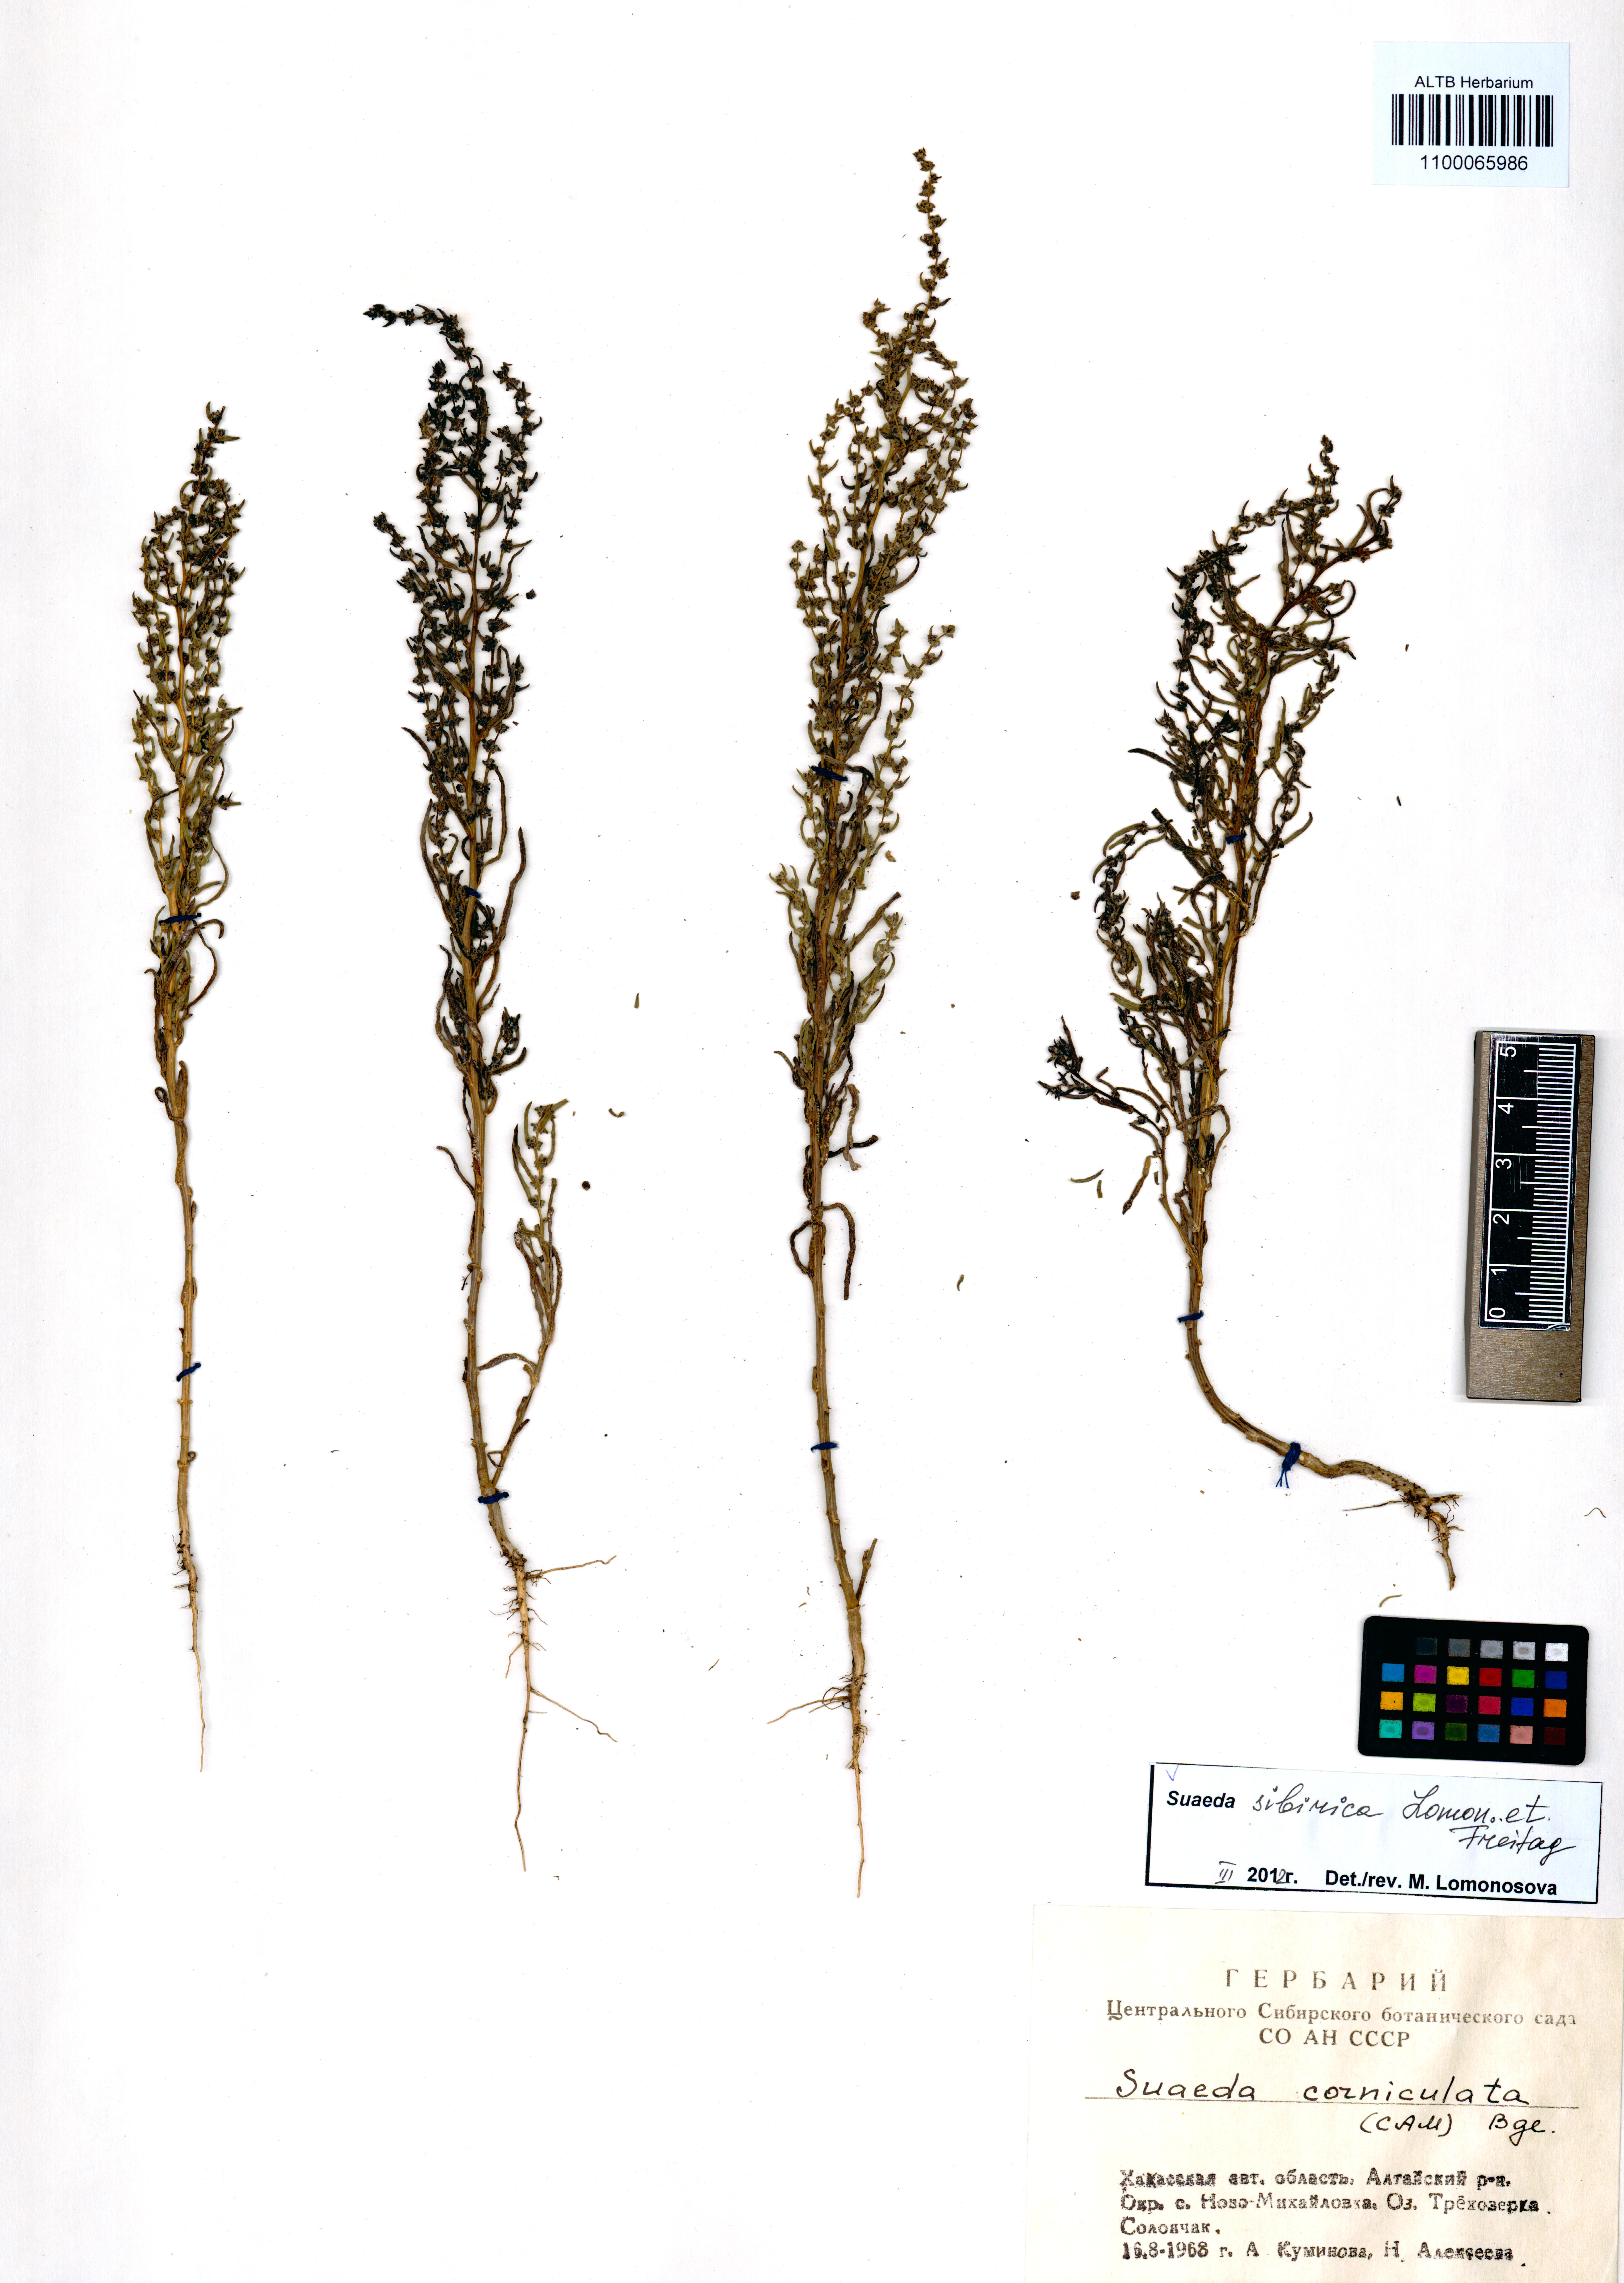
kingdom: Plantae
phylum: Tracheophyta
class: Magnoliopsida
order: Caryophyllales
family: Amaranthaceae
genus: Suaeda
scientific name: Suaeda sibirica
